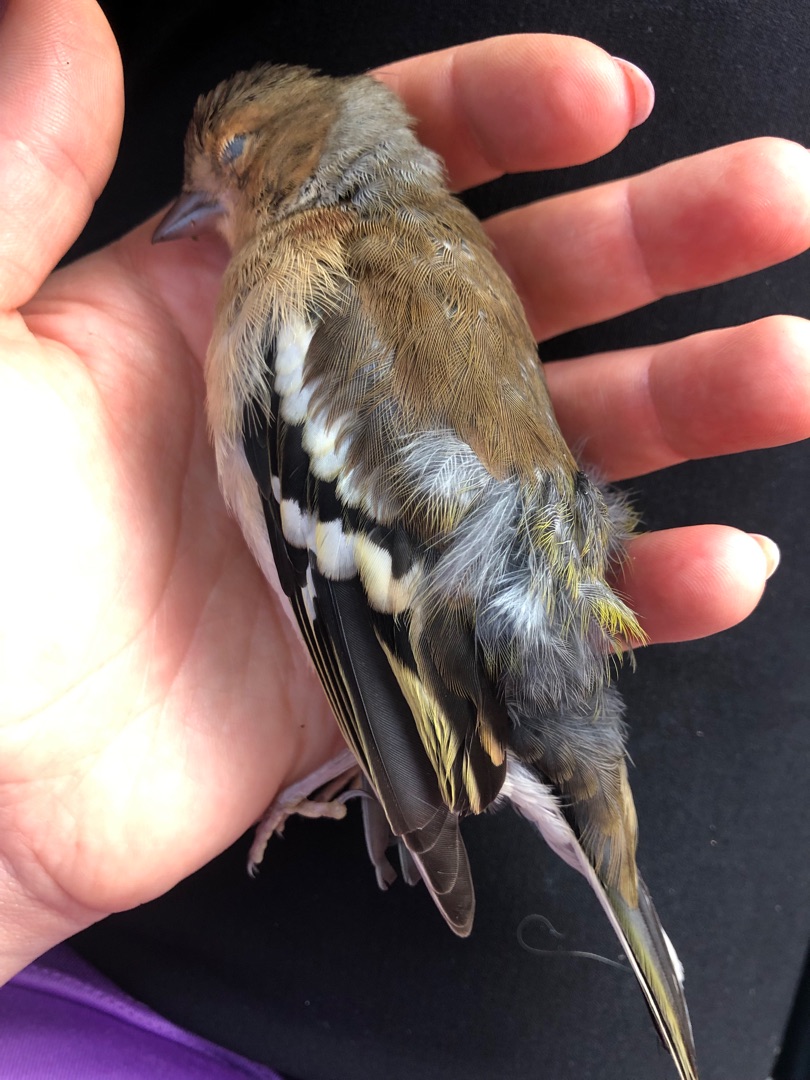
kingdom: Animalia
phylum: Chordata
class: Aves
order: Passeriformes
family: Fringillidae
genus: Fringilla
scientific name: Fringilla coelebs
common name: Bogfinke
